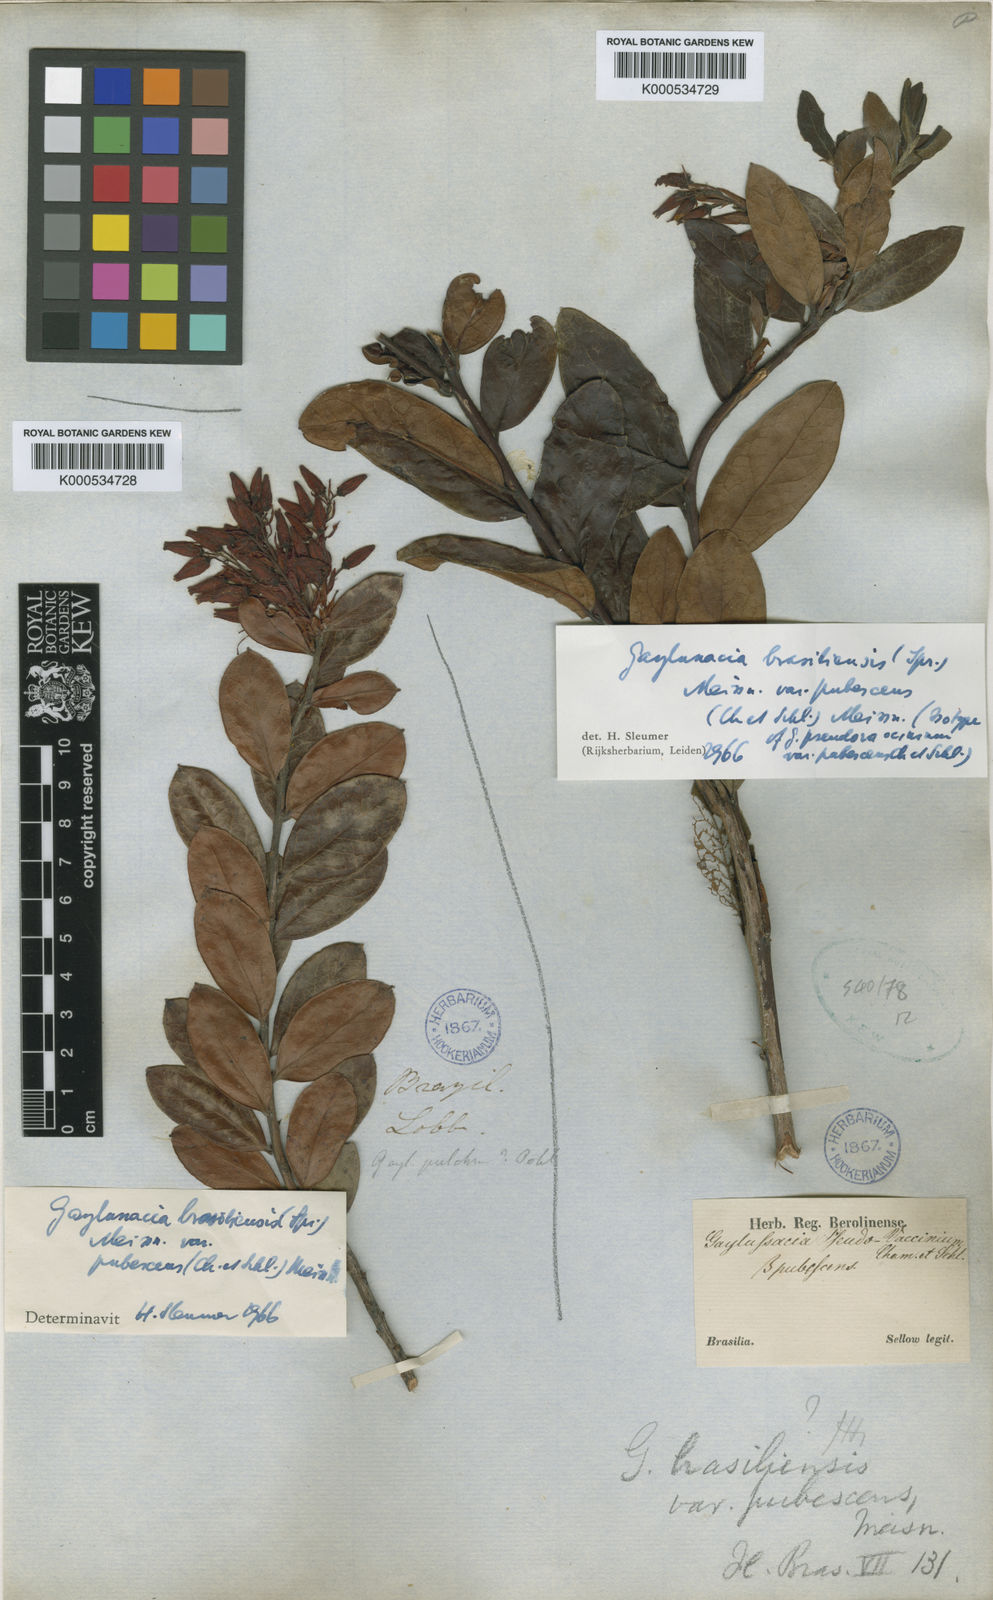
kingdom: Plantae
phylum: Tracheophyta
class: Magnoliopsida
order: Ericales
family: Ericaceae
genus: Gaylussacia
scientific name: Gaylussacia brasiliensis
